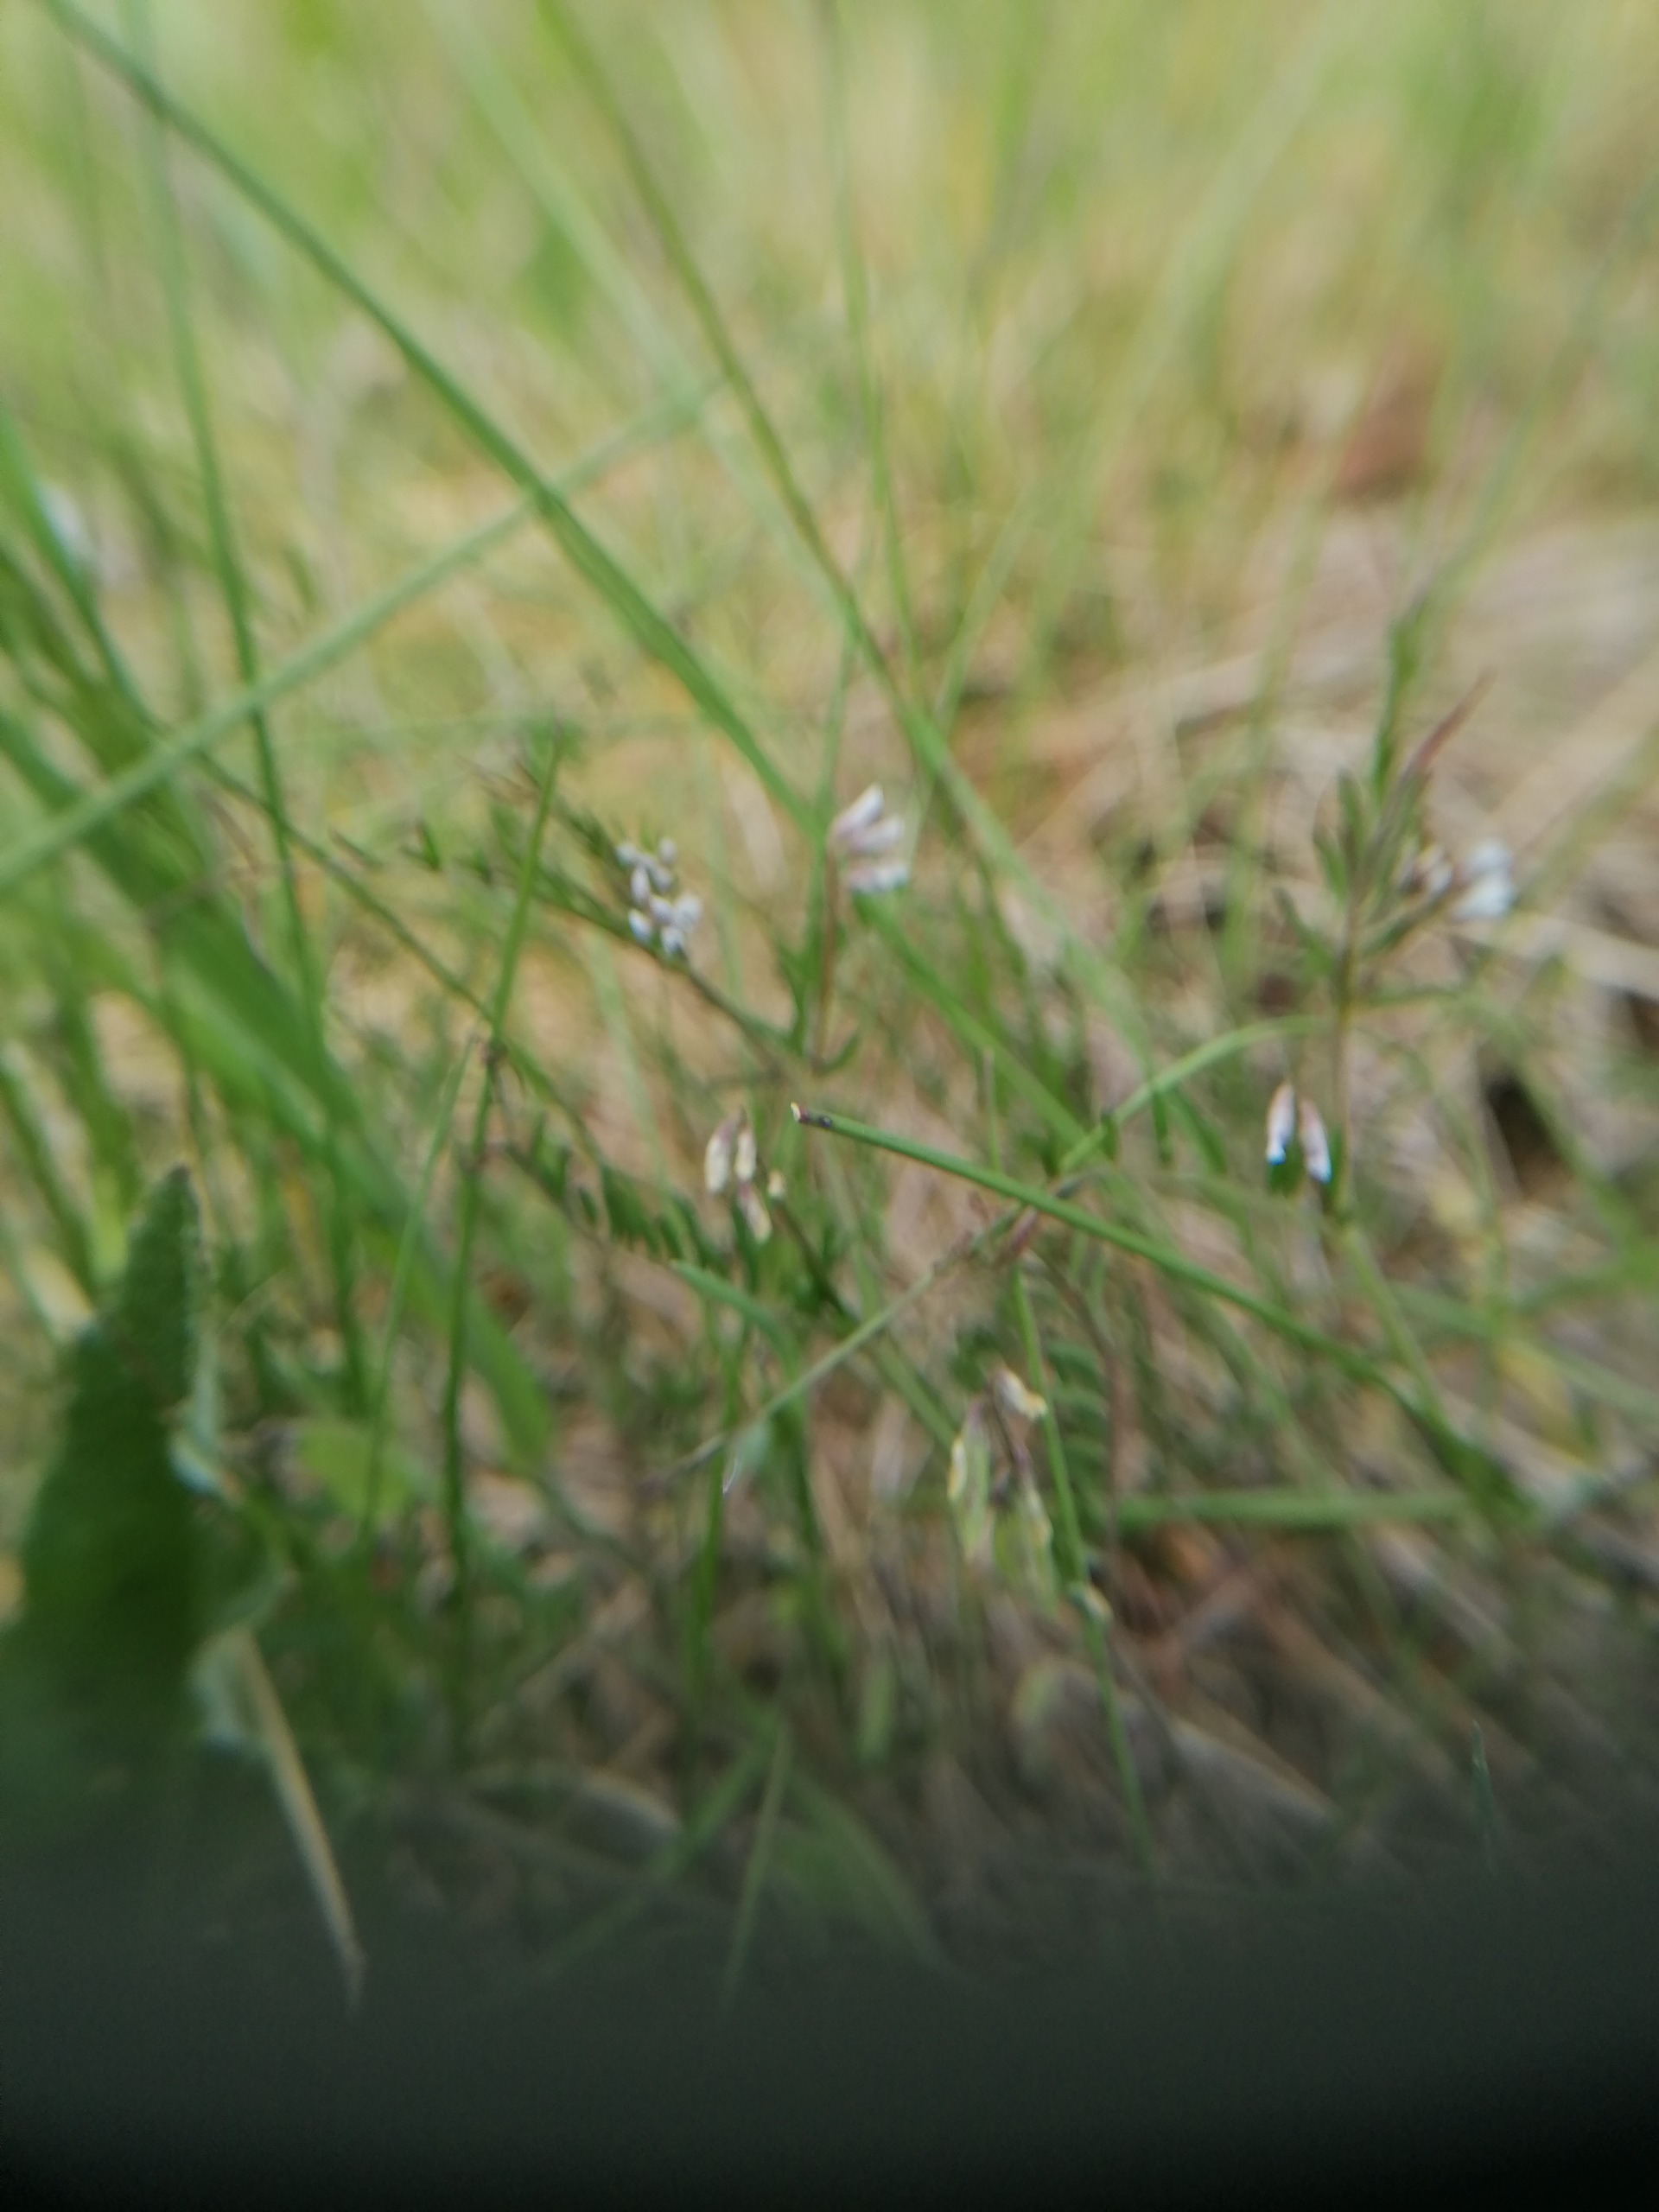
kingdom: Plantae
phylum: Tracheophyta
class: Magnoliopsida
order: Fabales
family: Fabaceae
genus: Vicia
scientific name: Vicia hirsuta
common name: Tofrøet vikke
